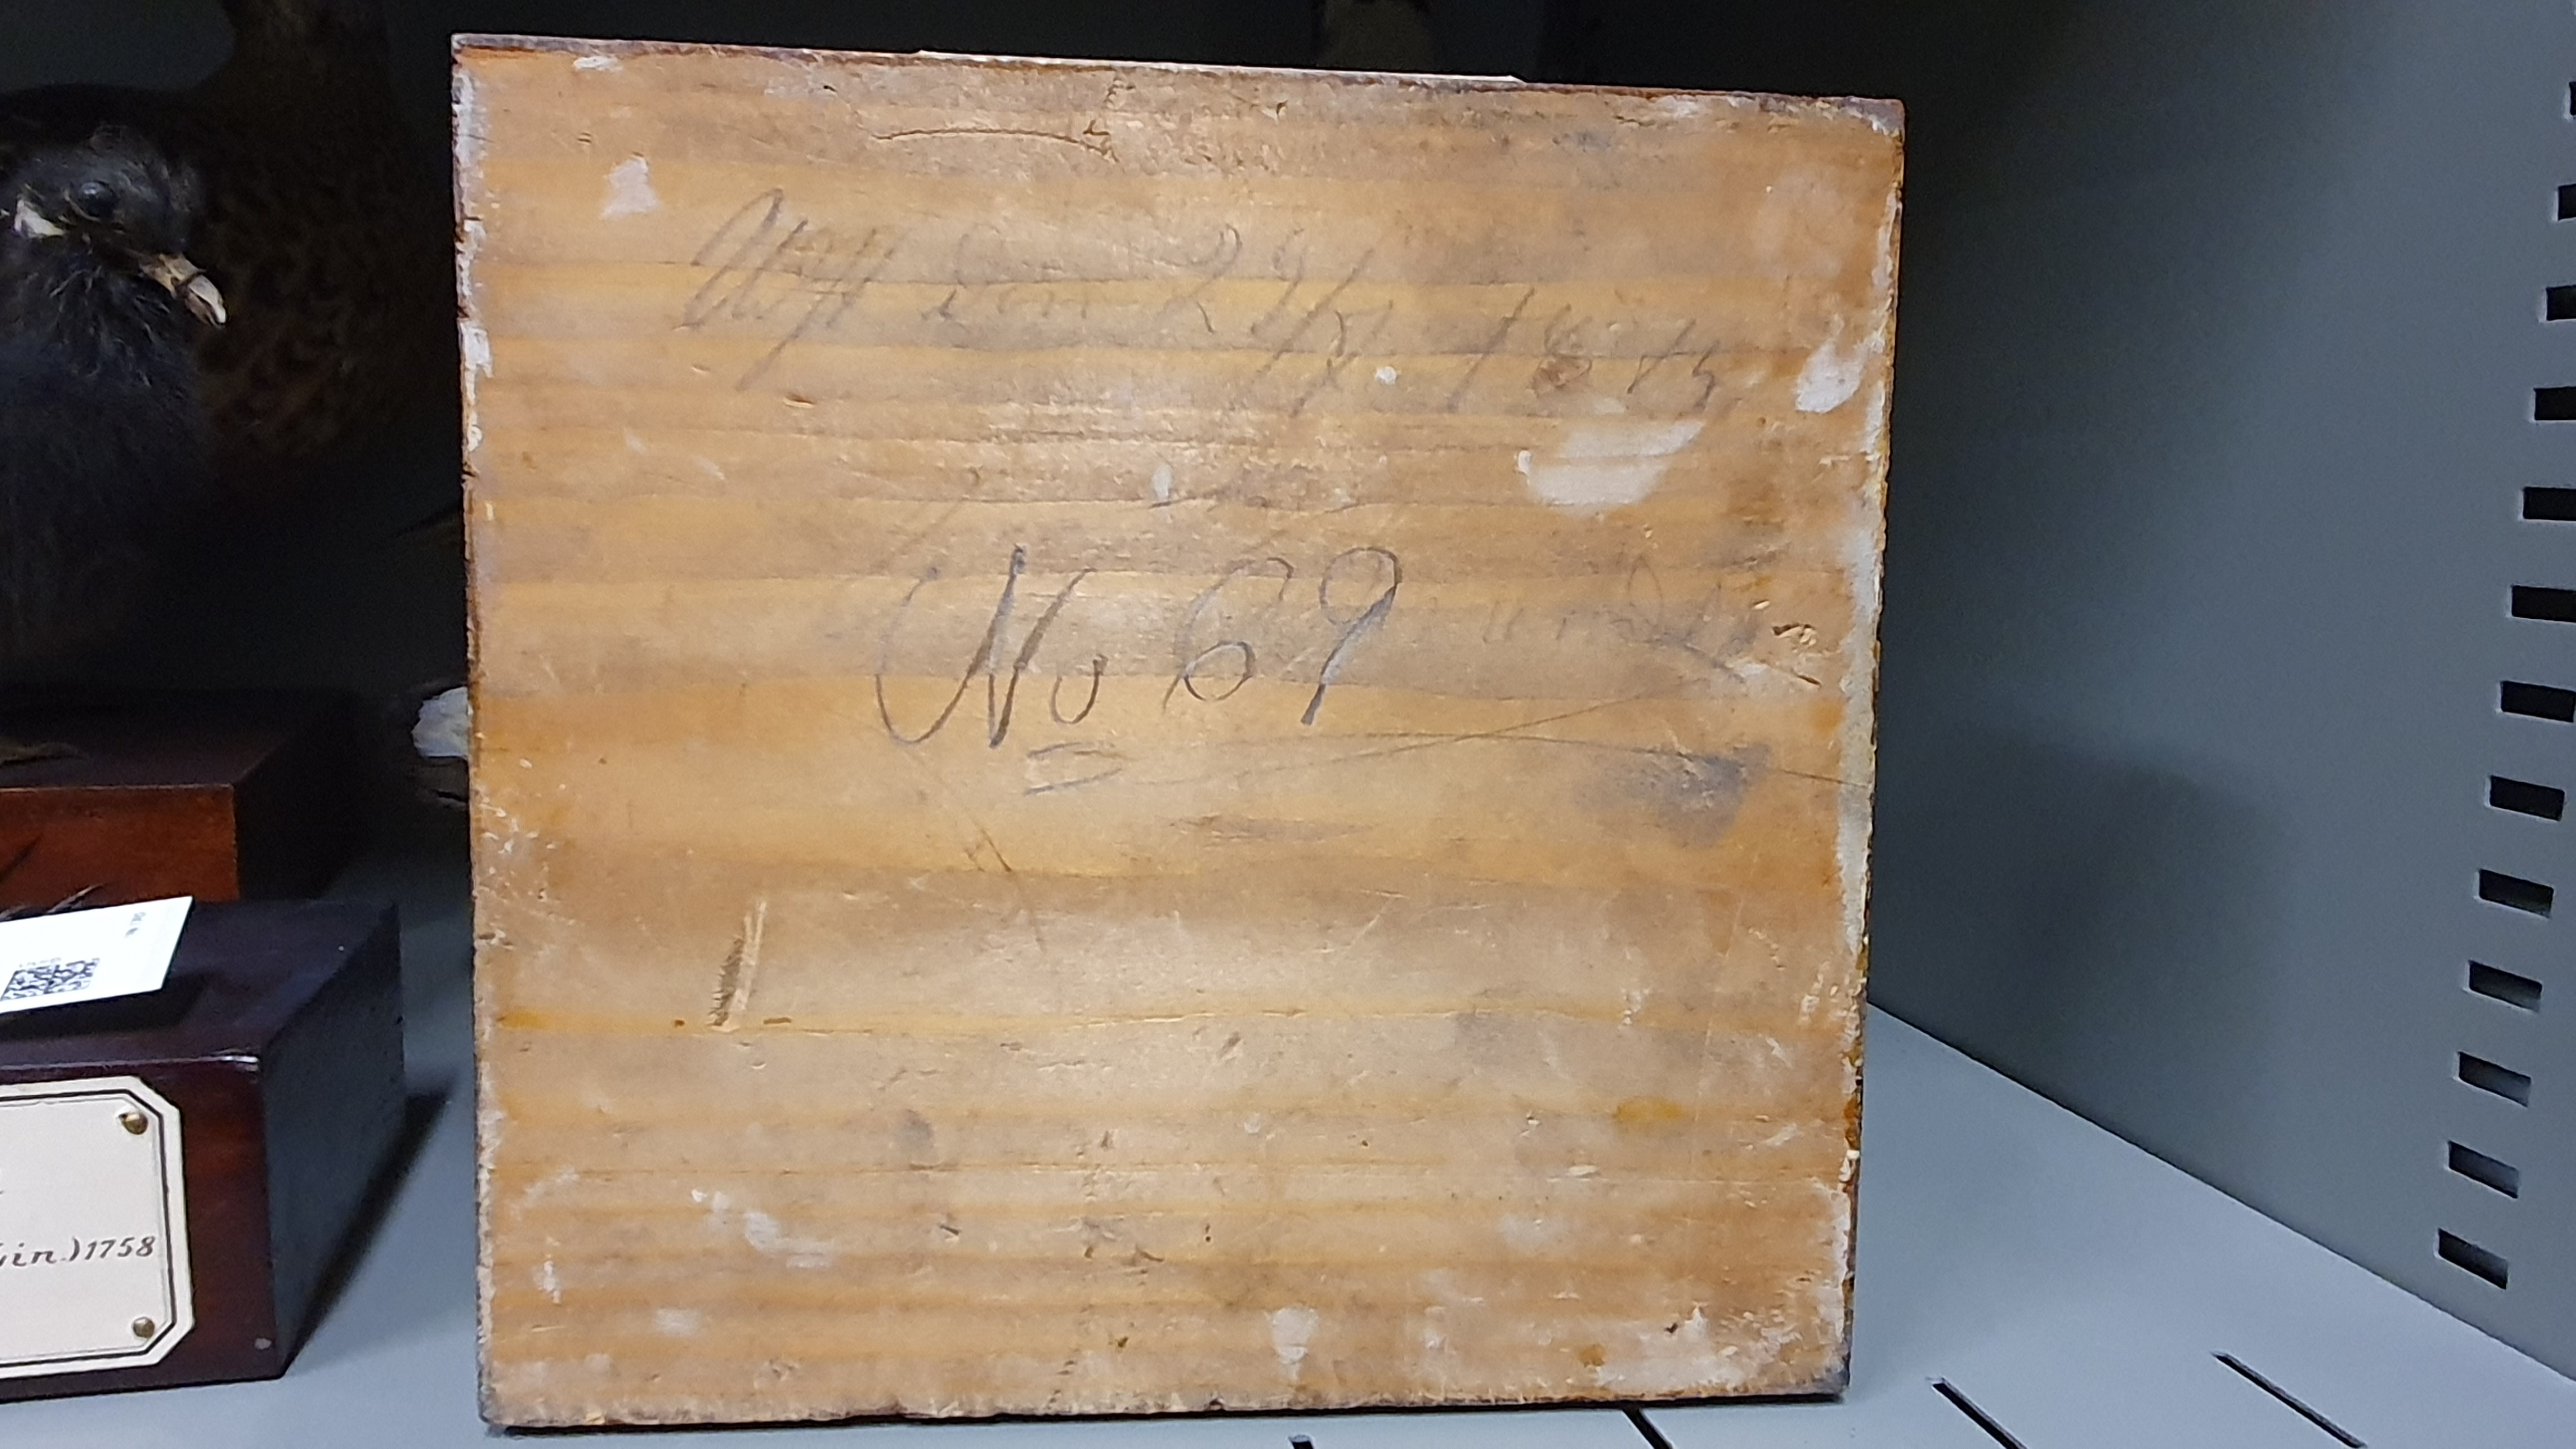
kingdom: Animalia
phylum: Chordata
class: Aves
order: Gruiformes
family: Rallidae
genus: Gallinula
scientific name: Gallinula chloropus
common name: Common moorhen
